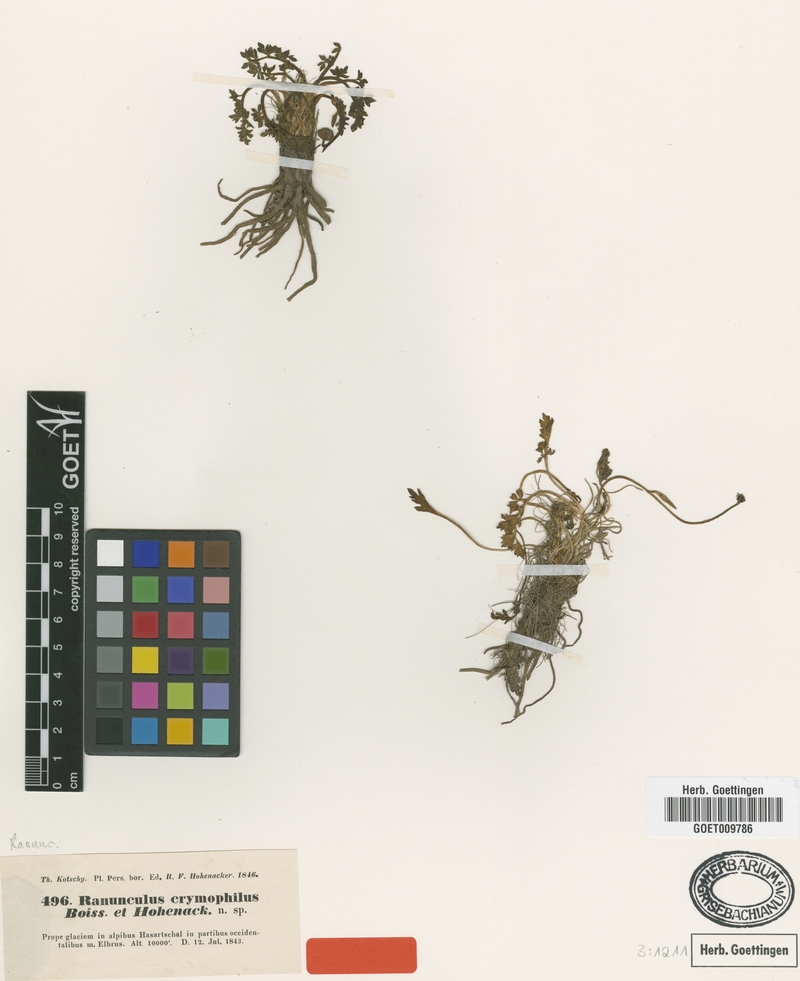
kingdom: Plantae
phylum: Tracheophyta
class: Magnoliopsida
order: Ranunculales
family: Ranunculaceae
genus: Ranunculus
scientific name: Ranunculus crymophilus
